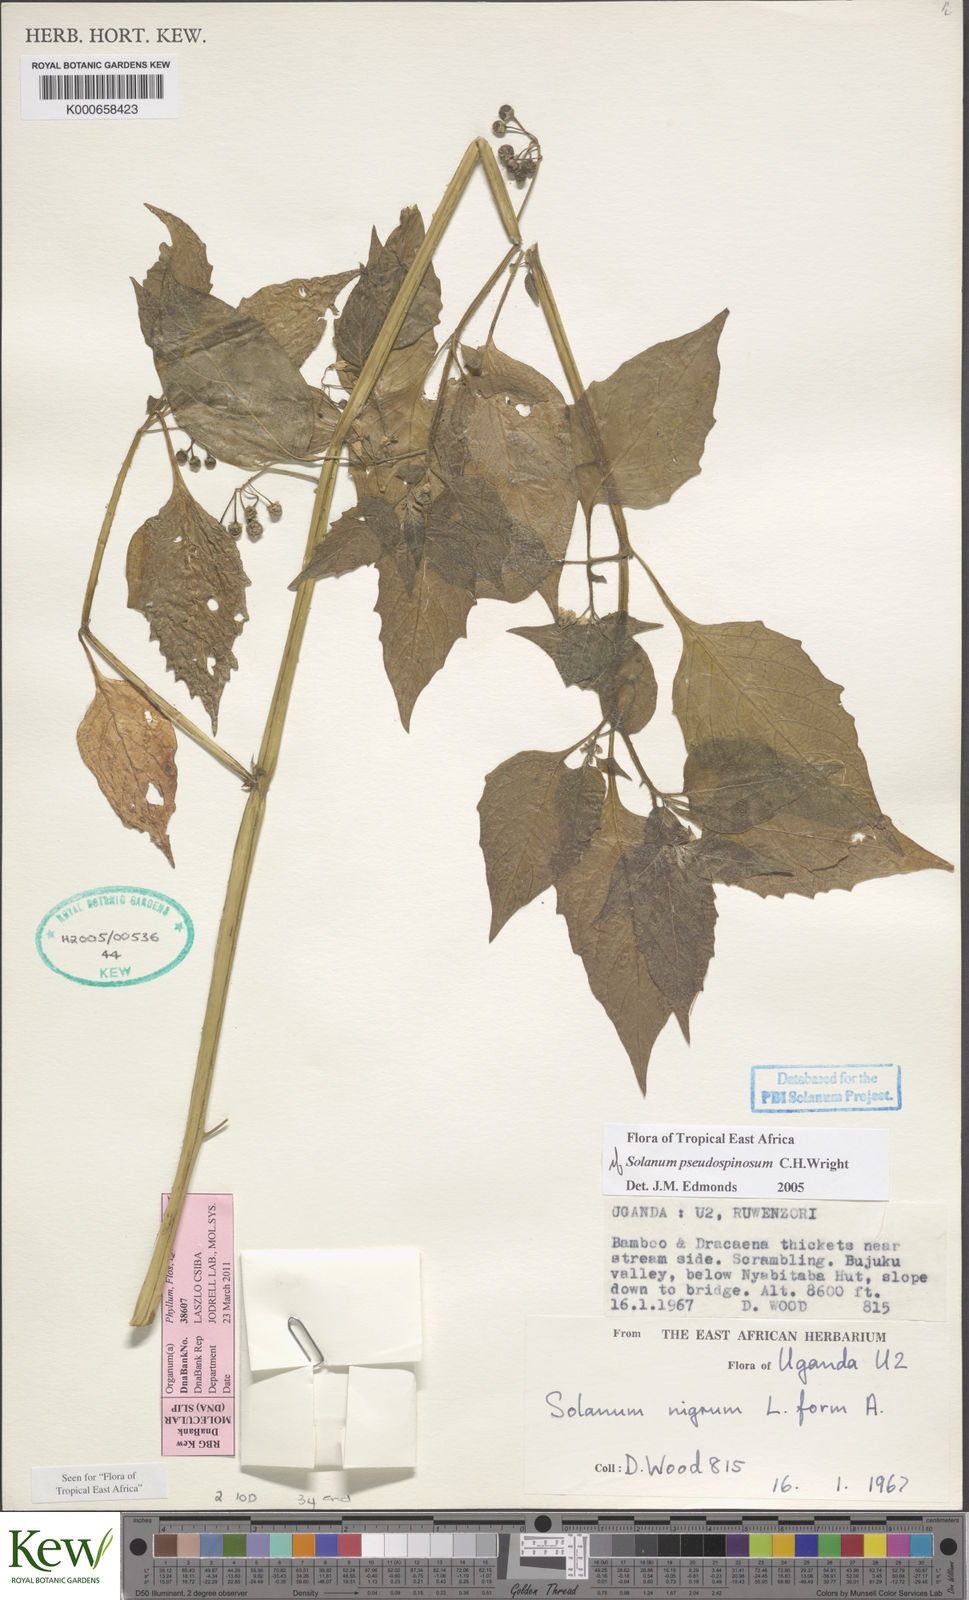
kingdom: Plantae
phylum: Tracheophyta
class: Magnoliopsida
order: Solanales
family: Solanaceae
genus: Solanum
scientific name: Solanum nigrum
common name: Black nightshade
